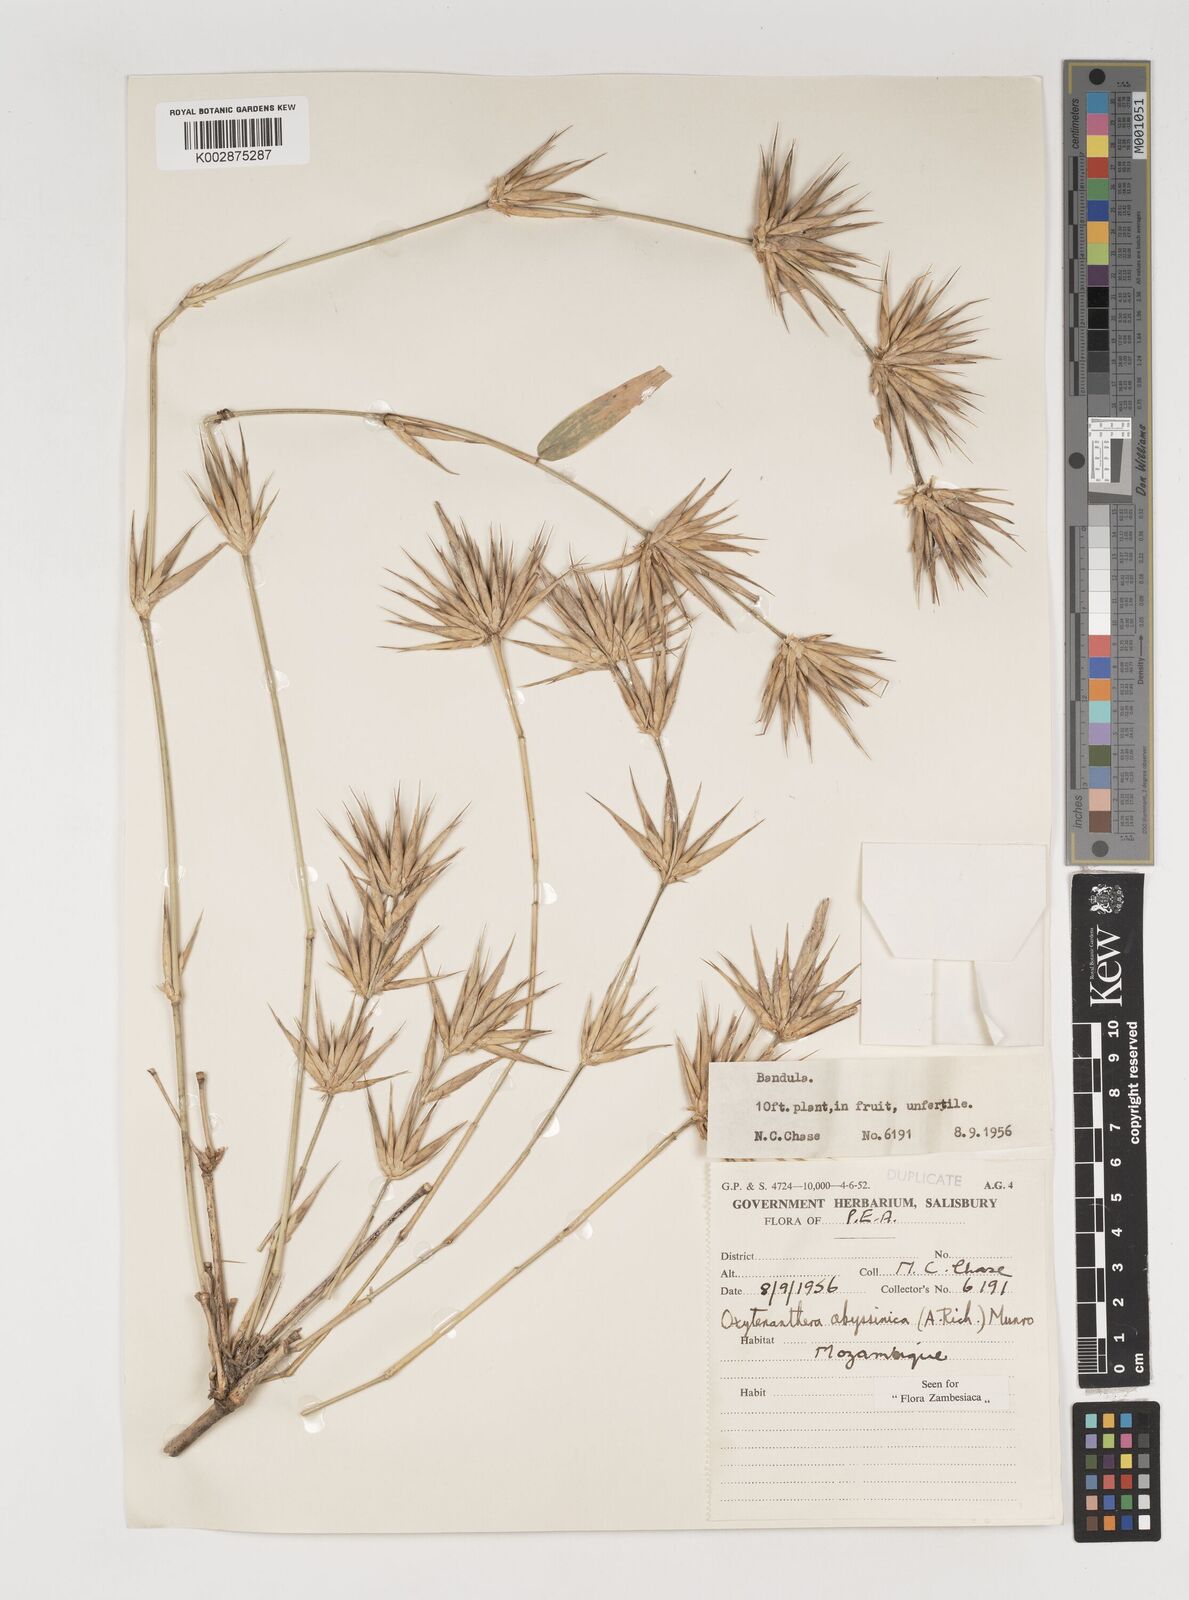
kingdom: Plantae
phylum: Tracheophyta
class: Liliopsida
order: Poales
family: Poaceae
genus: Oxytenanthera
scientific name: Oxytenanthera abyssinica
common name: Wine bamboo
